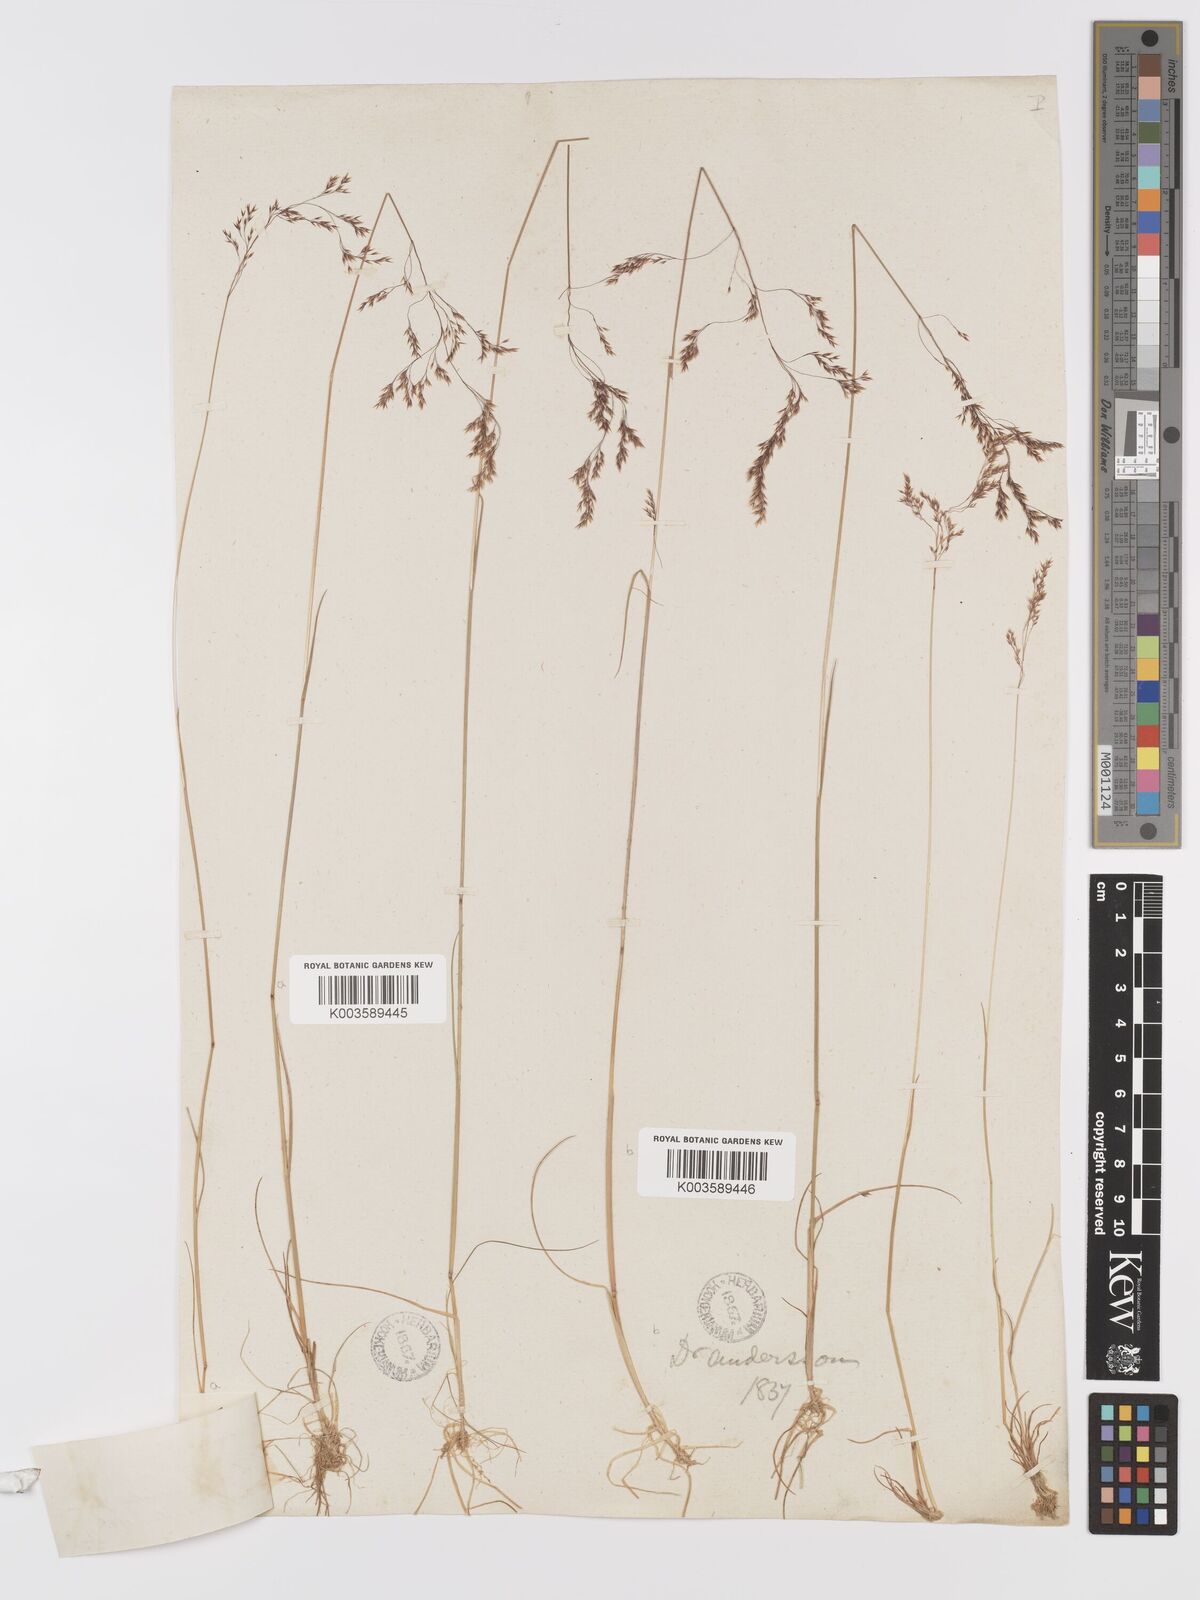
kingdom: Plantae
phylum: Tracheophyta
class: Liliopsida
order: Poales
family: Poaceae
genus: Agrostis
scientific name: Agrostis canina
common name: Velvet bent
